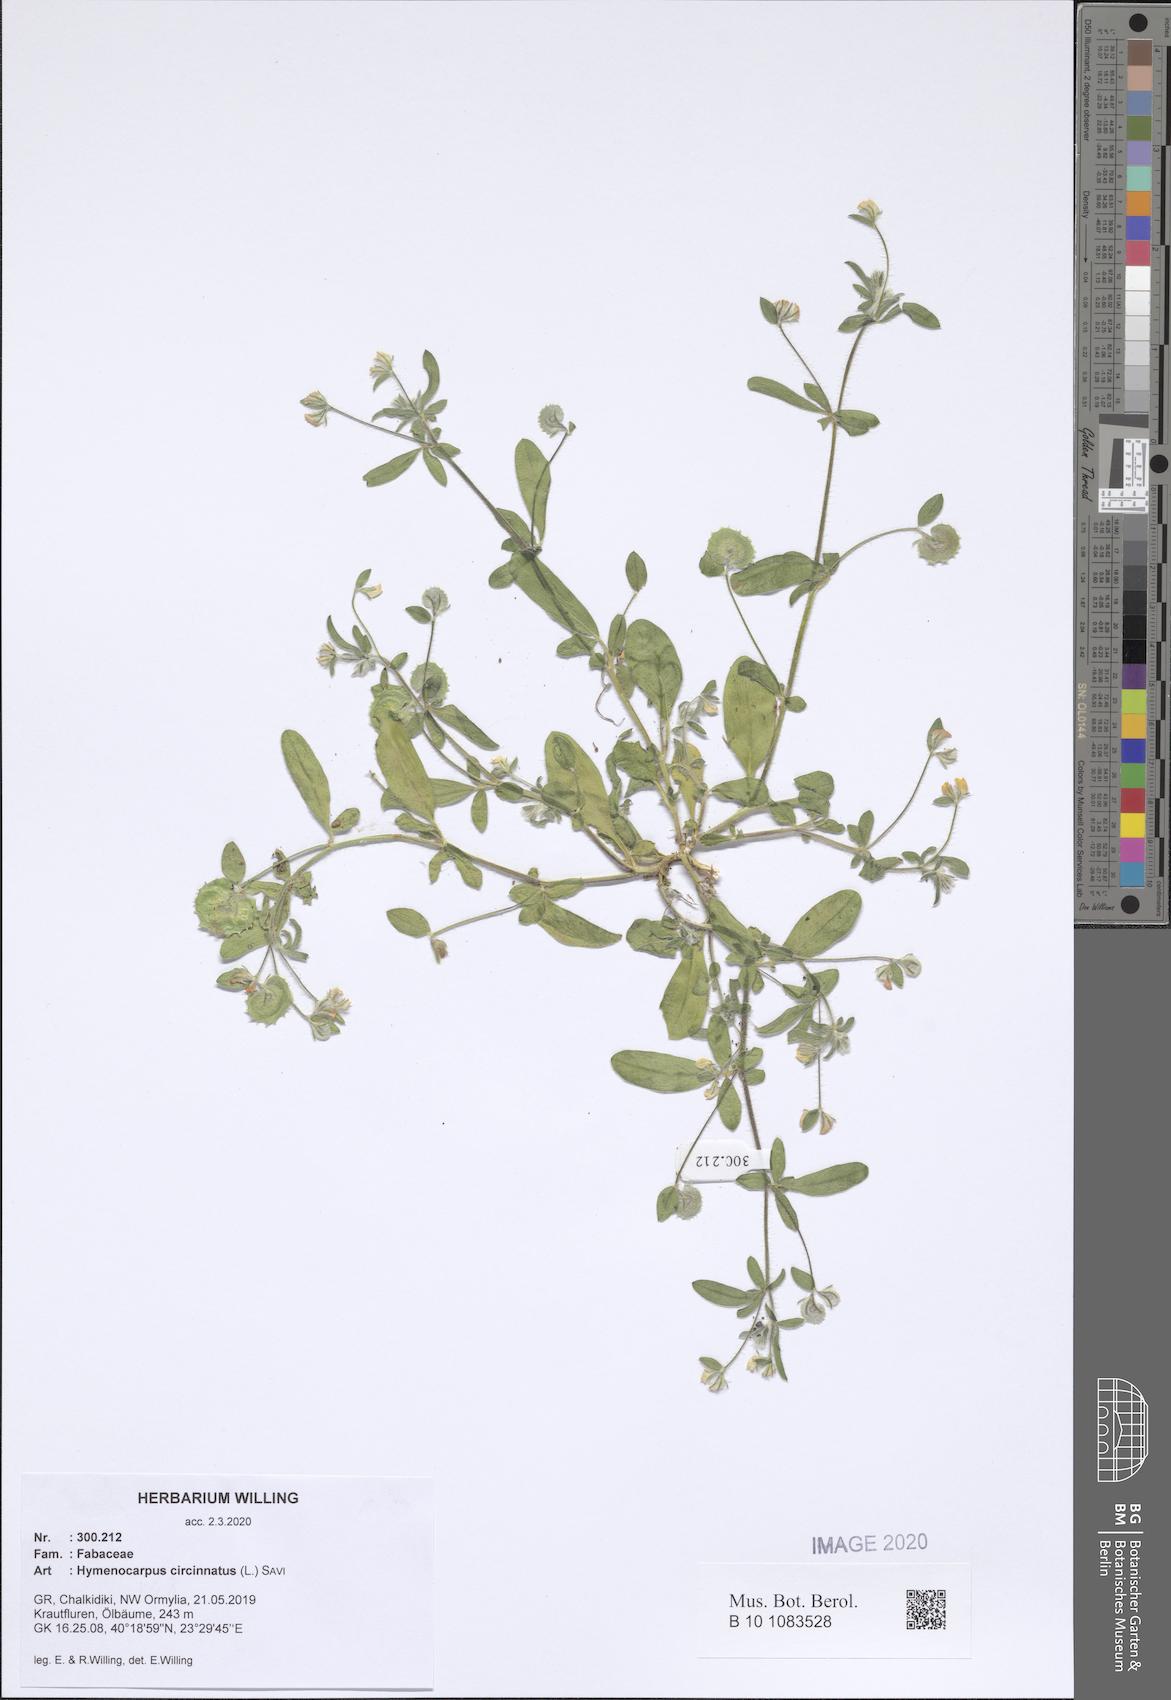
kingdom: Plantae
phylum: Tracheophyta
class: Magnoliopsida
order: Fabales
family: Fabaceae
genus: Anthyllis
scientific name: Anthyllis circinnata
